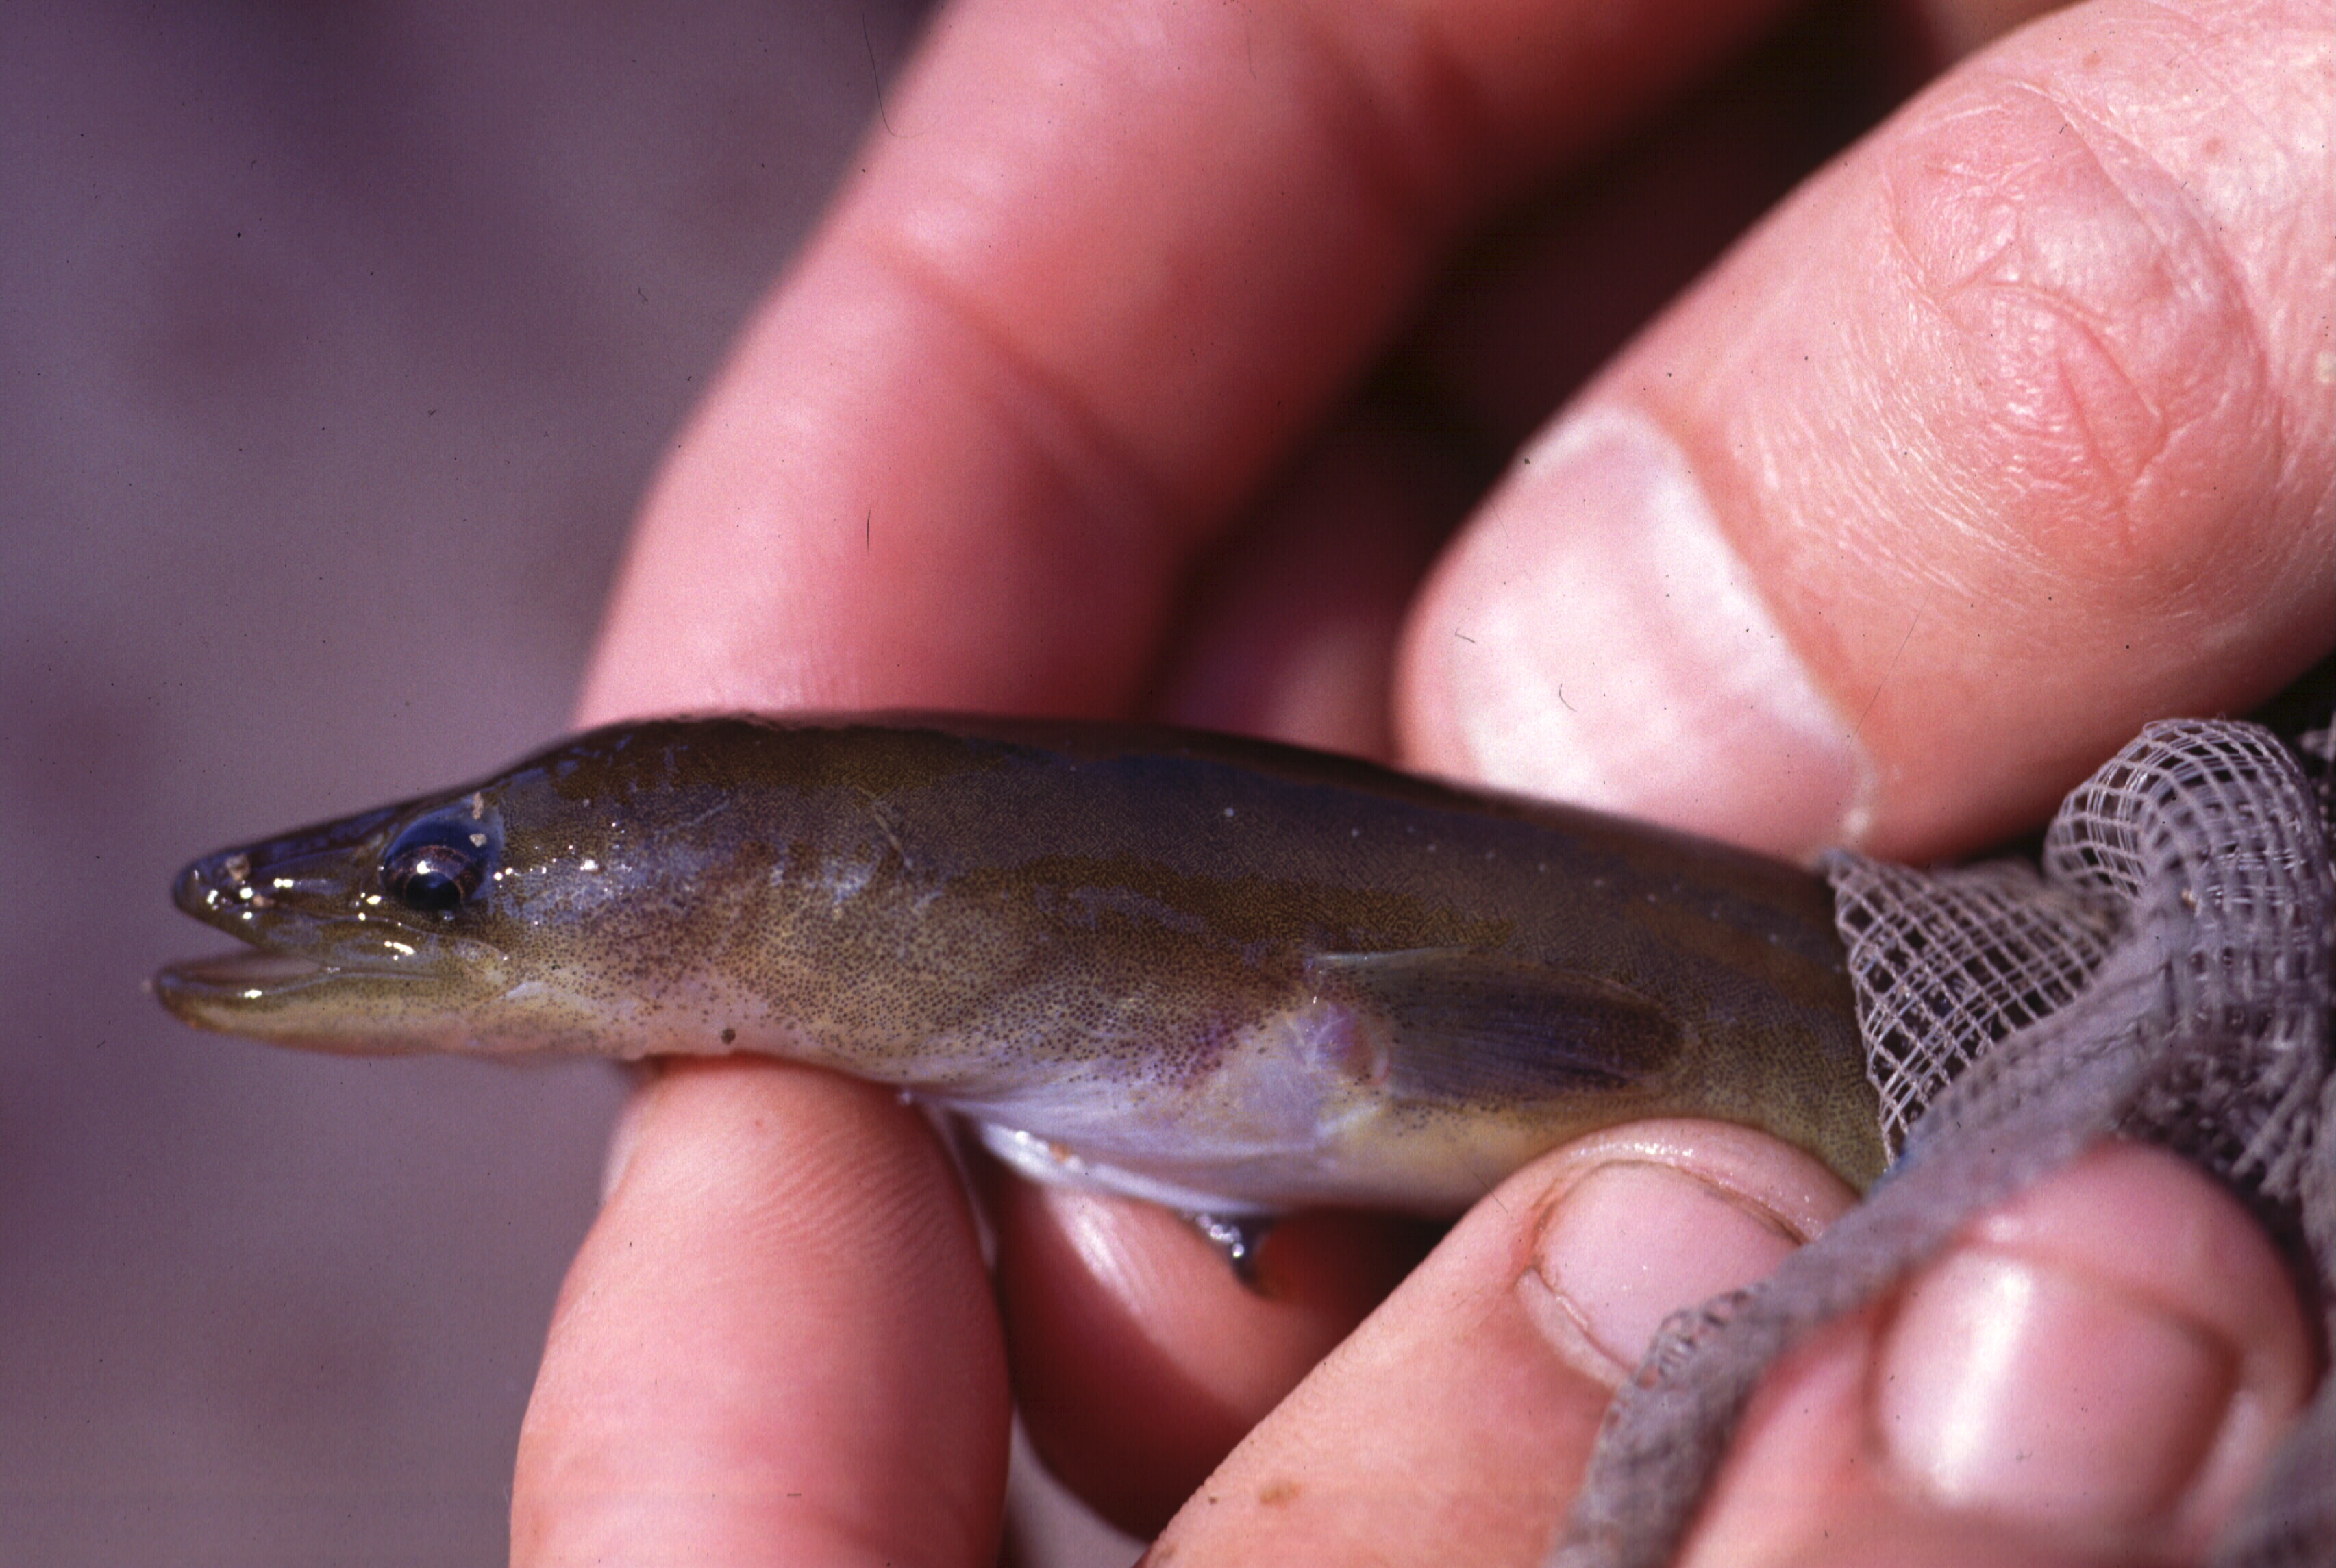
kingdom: Animalia
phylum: Chordata
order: Anguilliformes
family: Anguillidae
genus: Anguilla
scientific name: Anguilla mossambica
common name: African longfin eel
